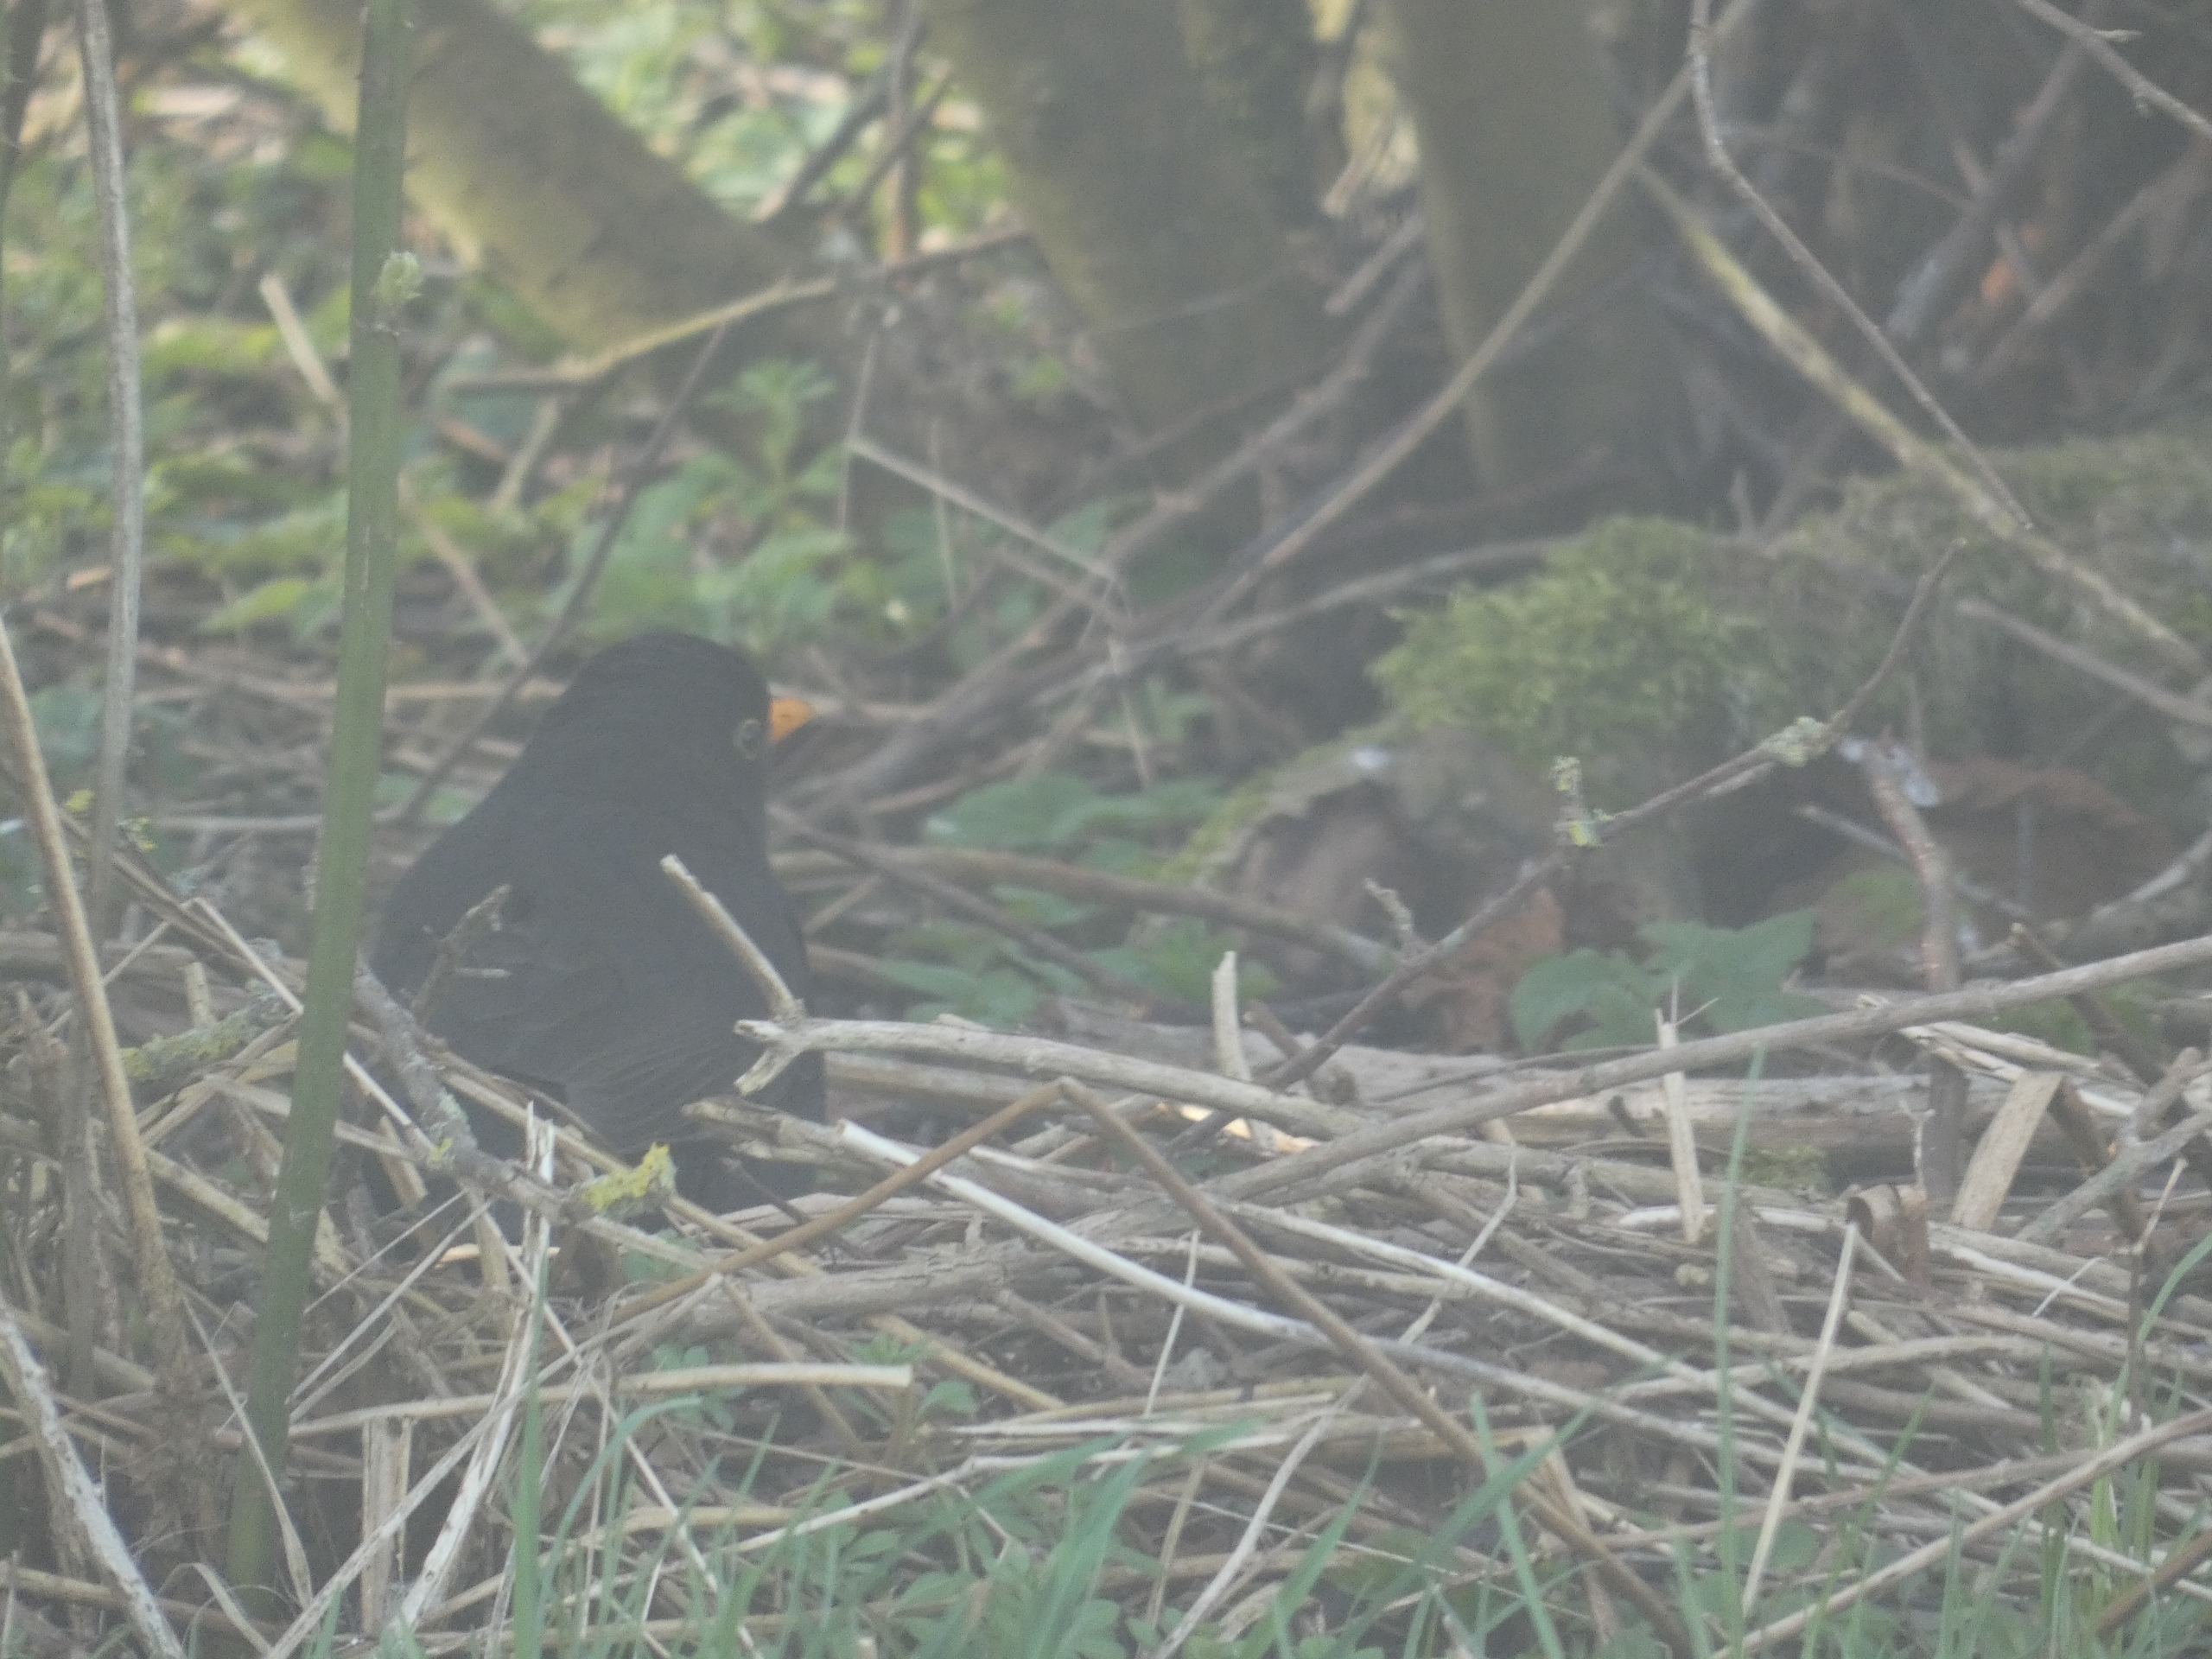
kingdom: Animalia
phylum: Chordata
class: Aves
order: Passeriformes
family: Turdidae
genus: Turdus
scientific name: Turdus merula
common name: Solsort
